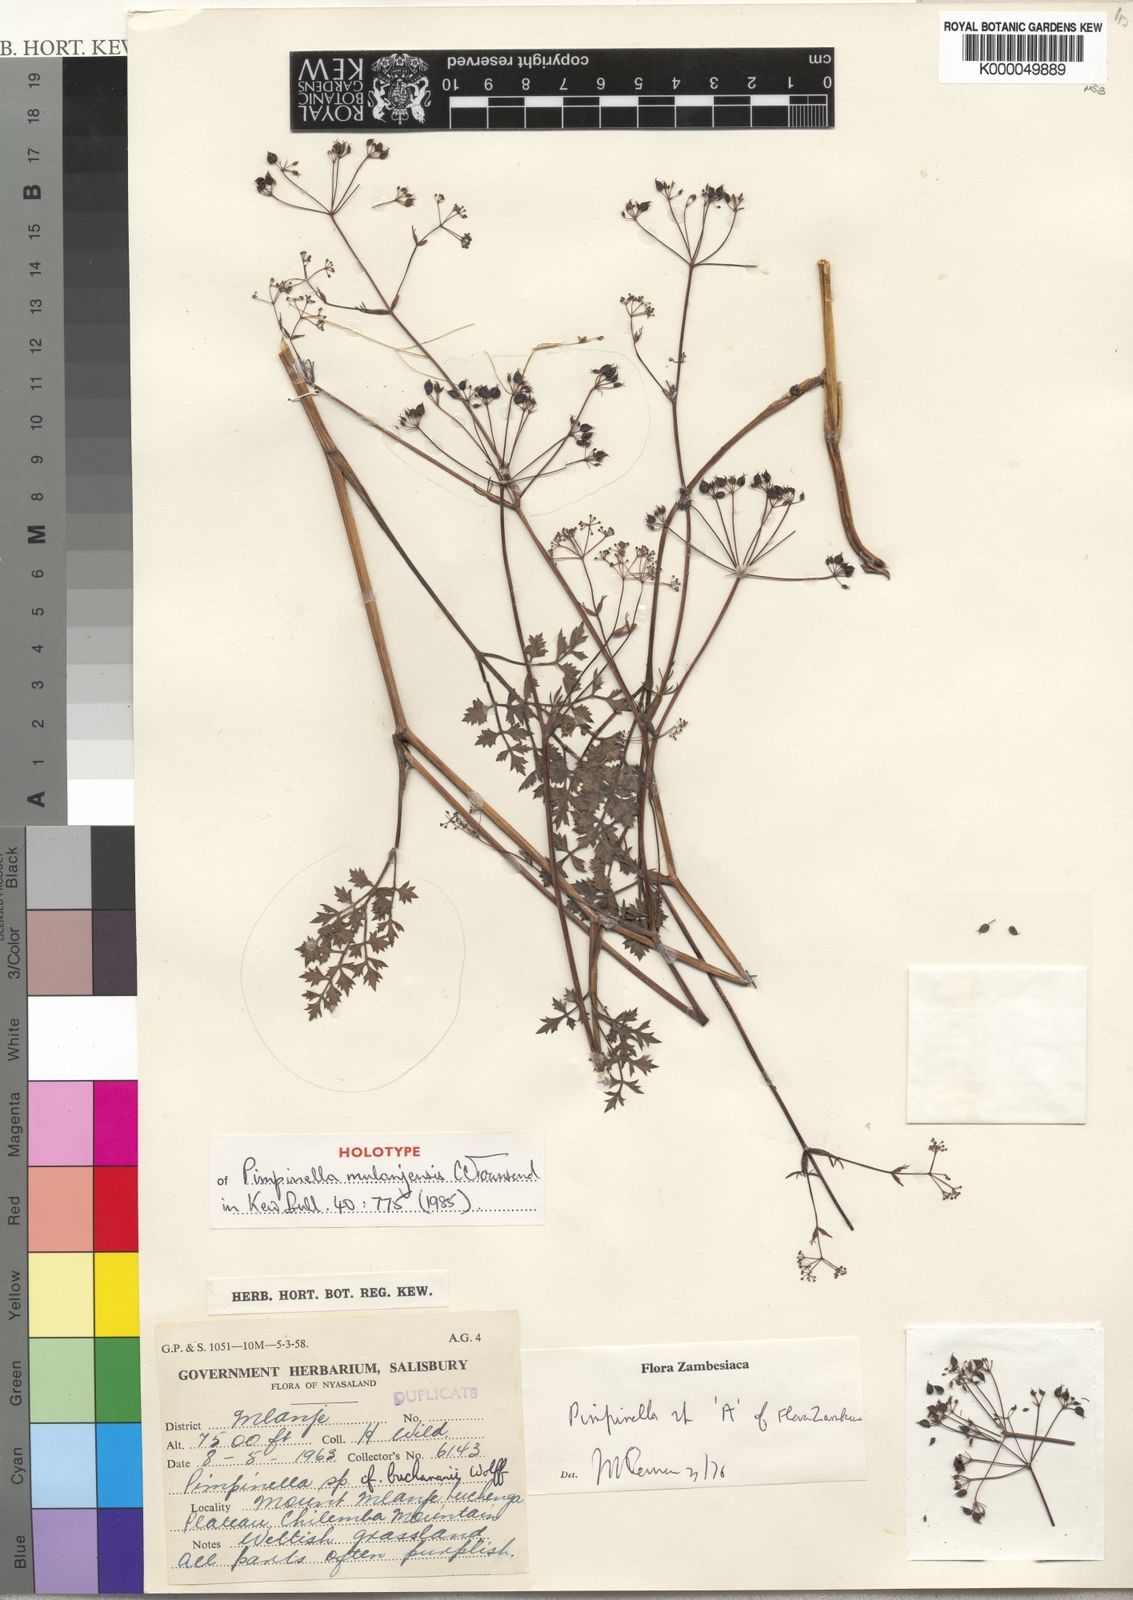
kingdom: Plantae
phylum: Tracheophyta
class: Magnoliopsida
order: Apiales
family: Apiaceae
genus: Pimpinella
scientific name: Pimpinella mulanjensis
